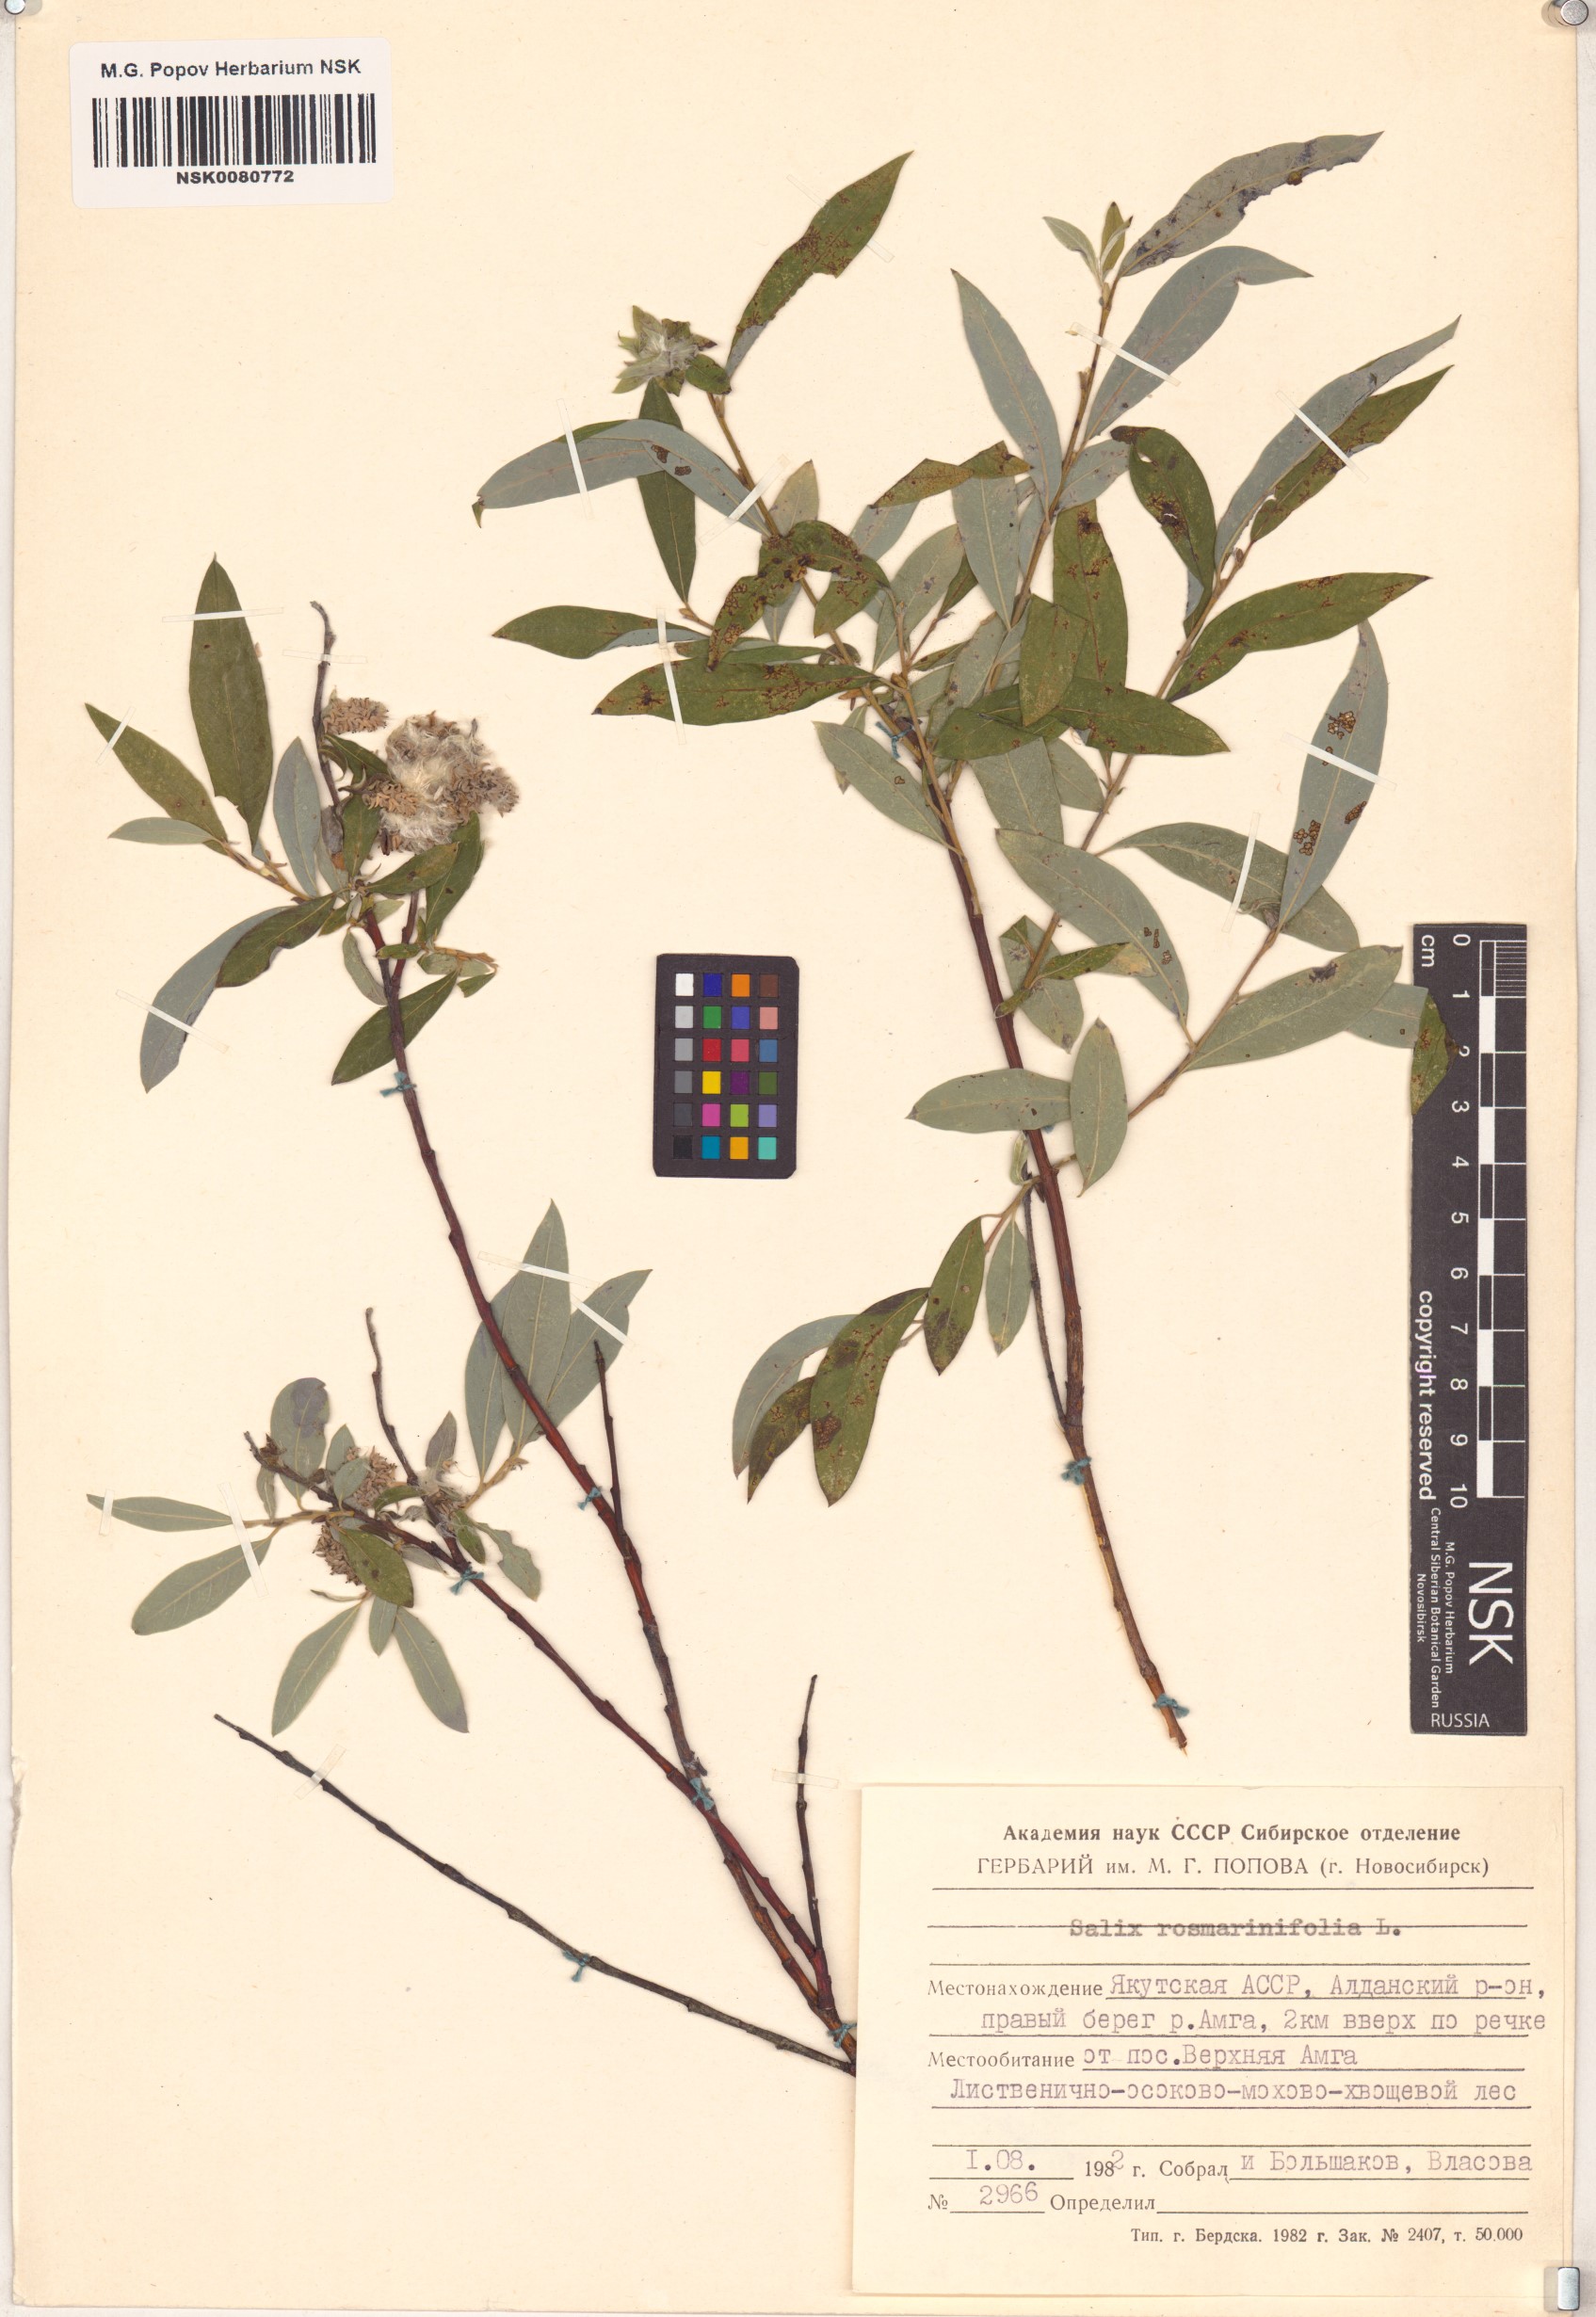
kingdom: Plantae
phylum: Tracheophyta
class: Magnoliopsida
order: Malpighiales
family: Salicaceae
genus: Salix
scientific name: Salix rosmarinifolia
